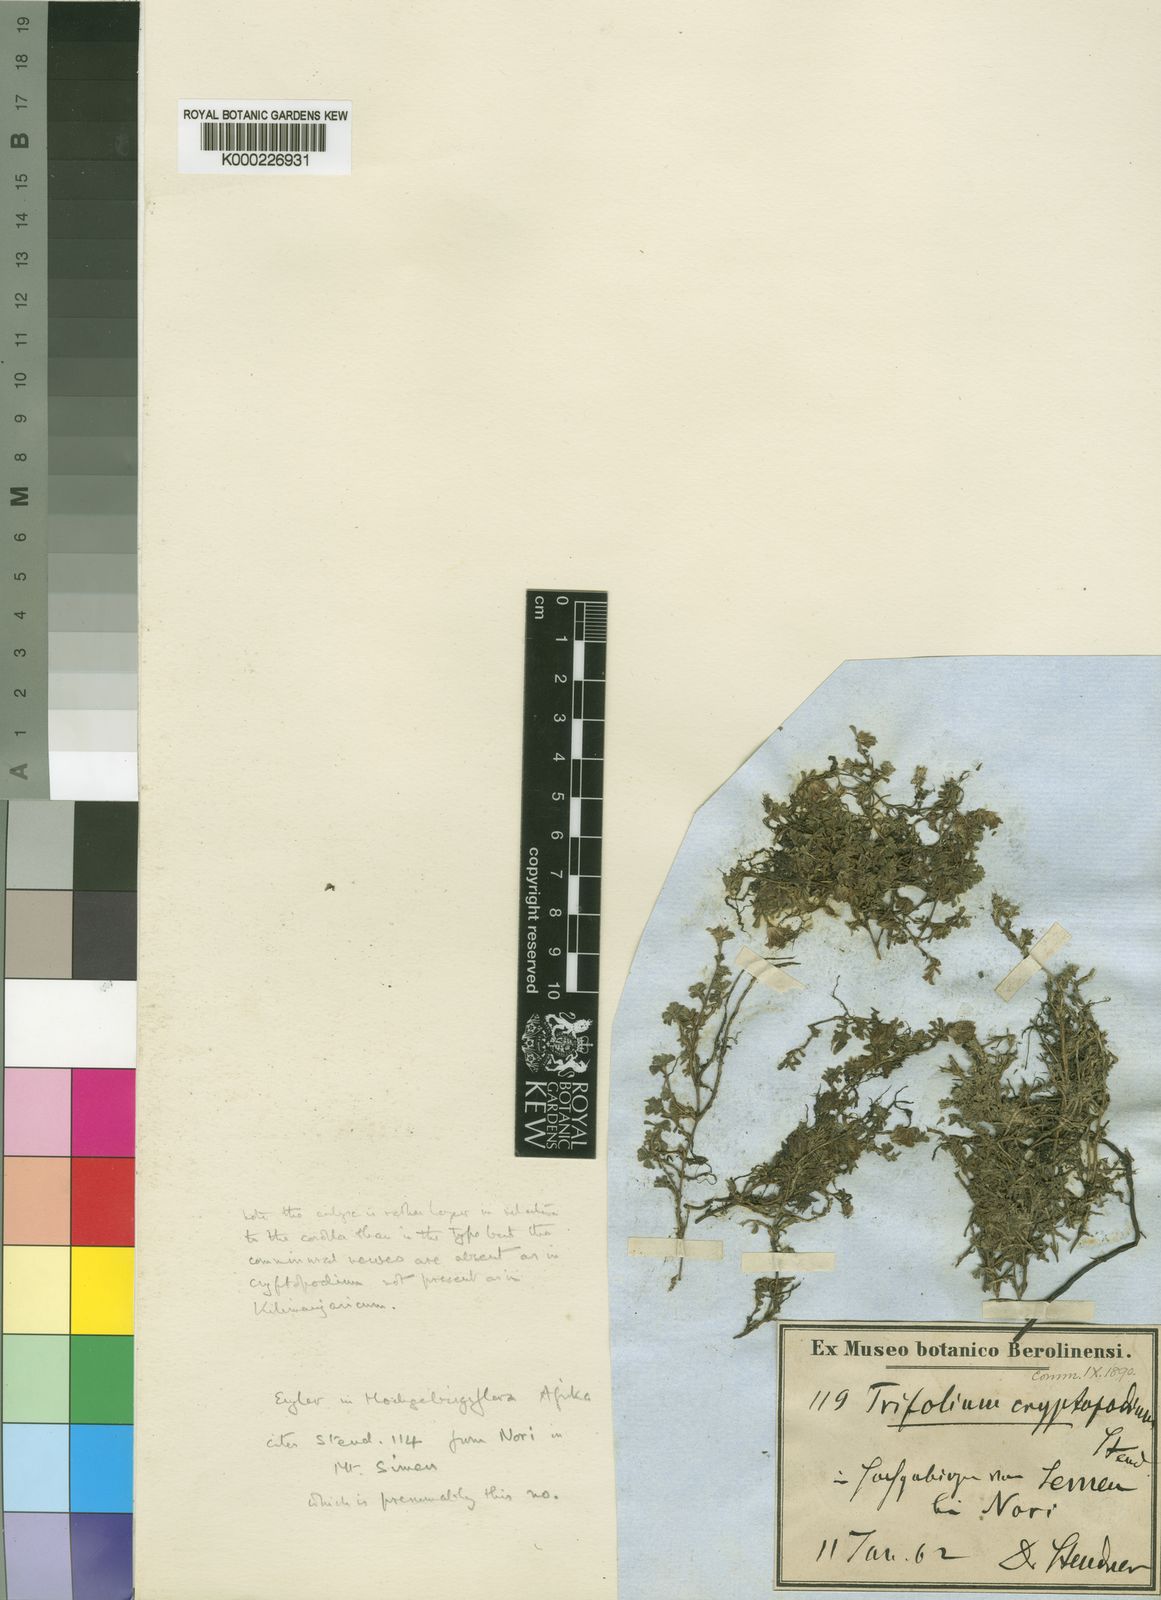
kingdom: Plantae
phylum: Tracheophyta
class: Magnoliopsida
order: Fabales
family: Fabaceae
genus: Trifolium
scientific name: Trifolium
